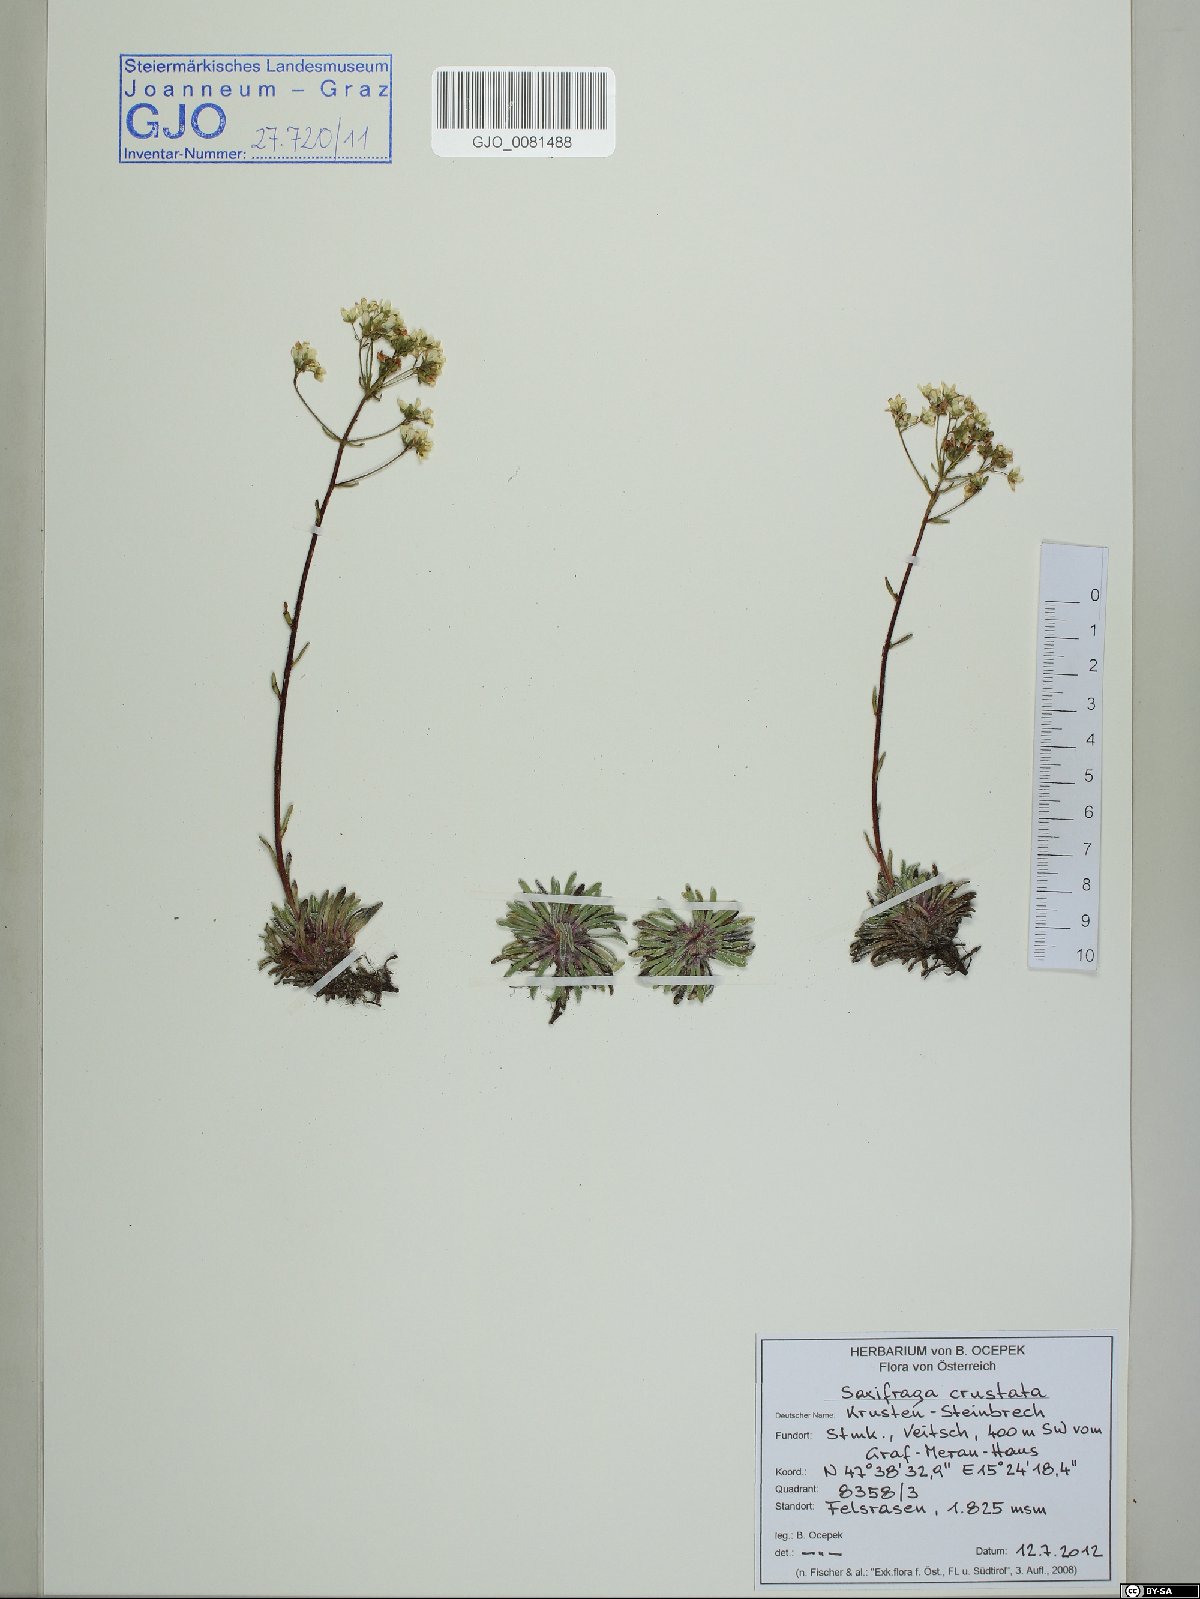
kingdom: Plantae
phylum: Tracheophyta
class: Magnoliopsida
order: Saxifragales
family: Saxifragaceae
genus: Saxifraga
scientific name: Saxifraga crustata
